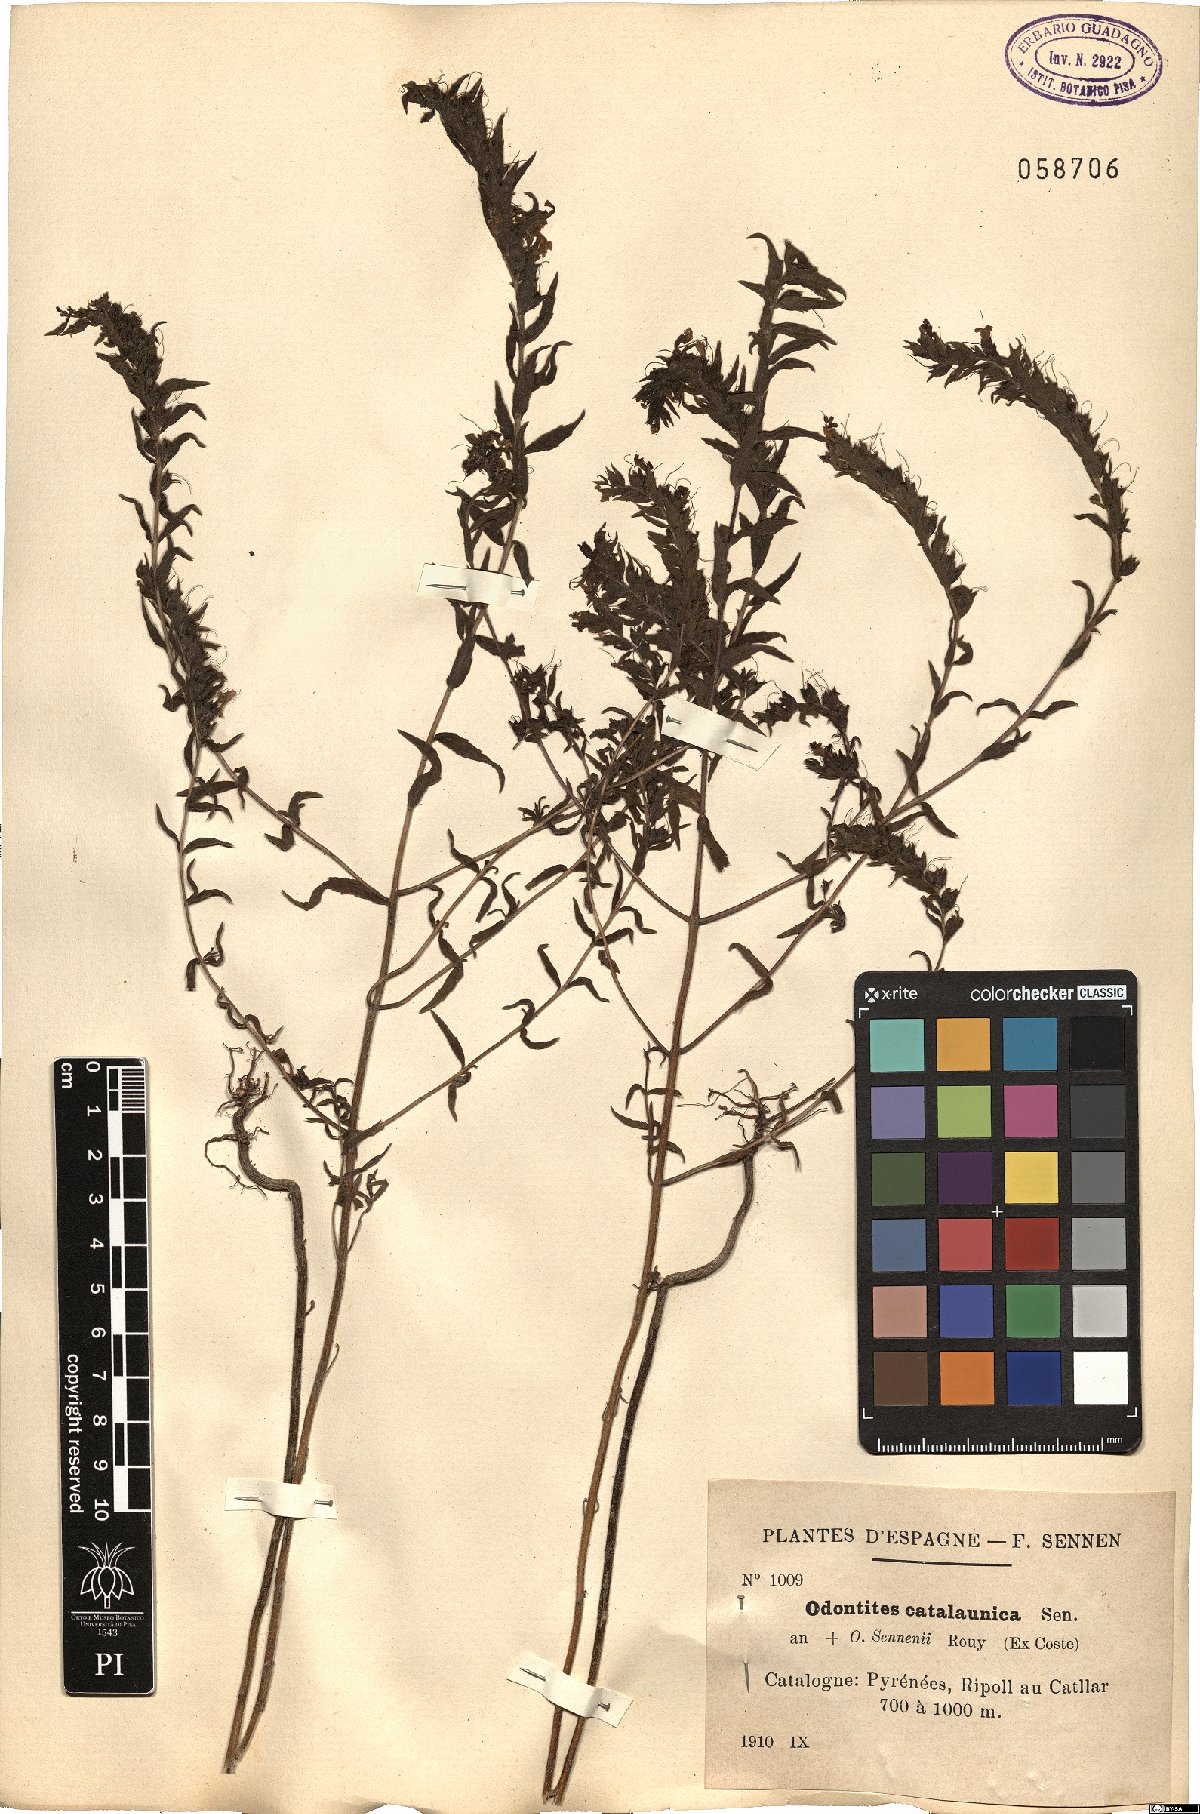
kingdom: Plantae
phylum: Tracheophyta
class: Magnoliopsida
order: Lamiales
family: Orobanchaceae
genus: Odontites
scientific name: Odontites cebennensis
